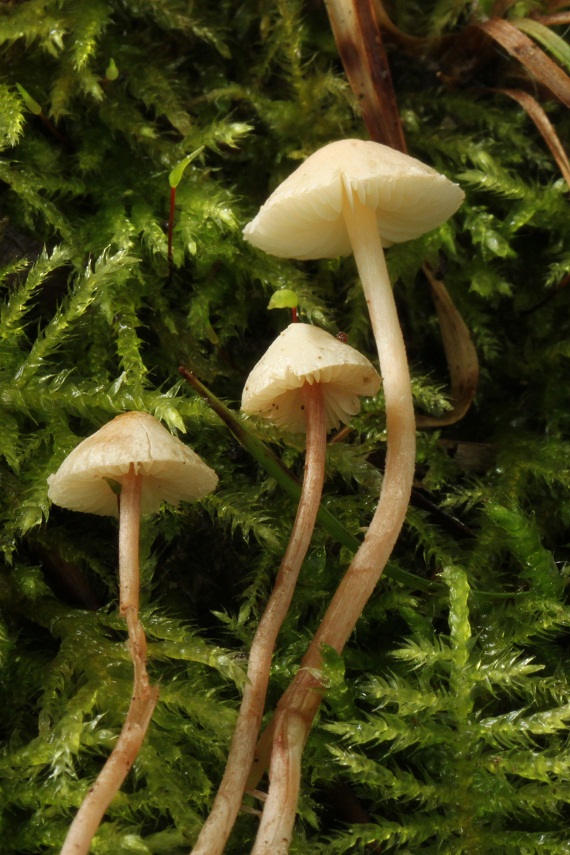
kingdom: Fungi
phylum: Basidiomycota
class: Agaricomycetes
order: Agaricales
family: Agaricaceae
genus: Cystolepiota
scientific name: Cystolepiota seminuda
